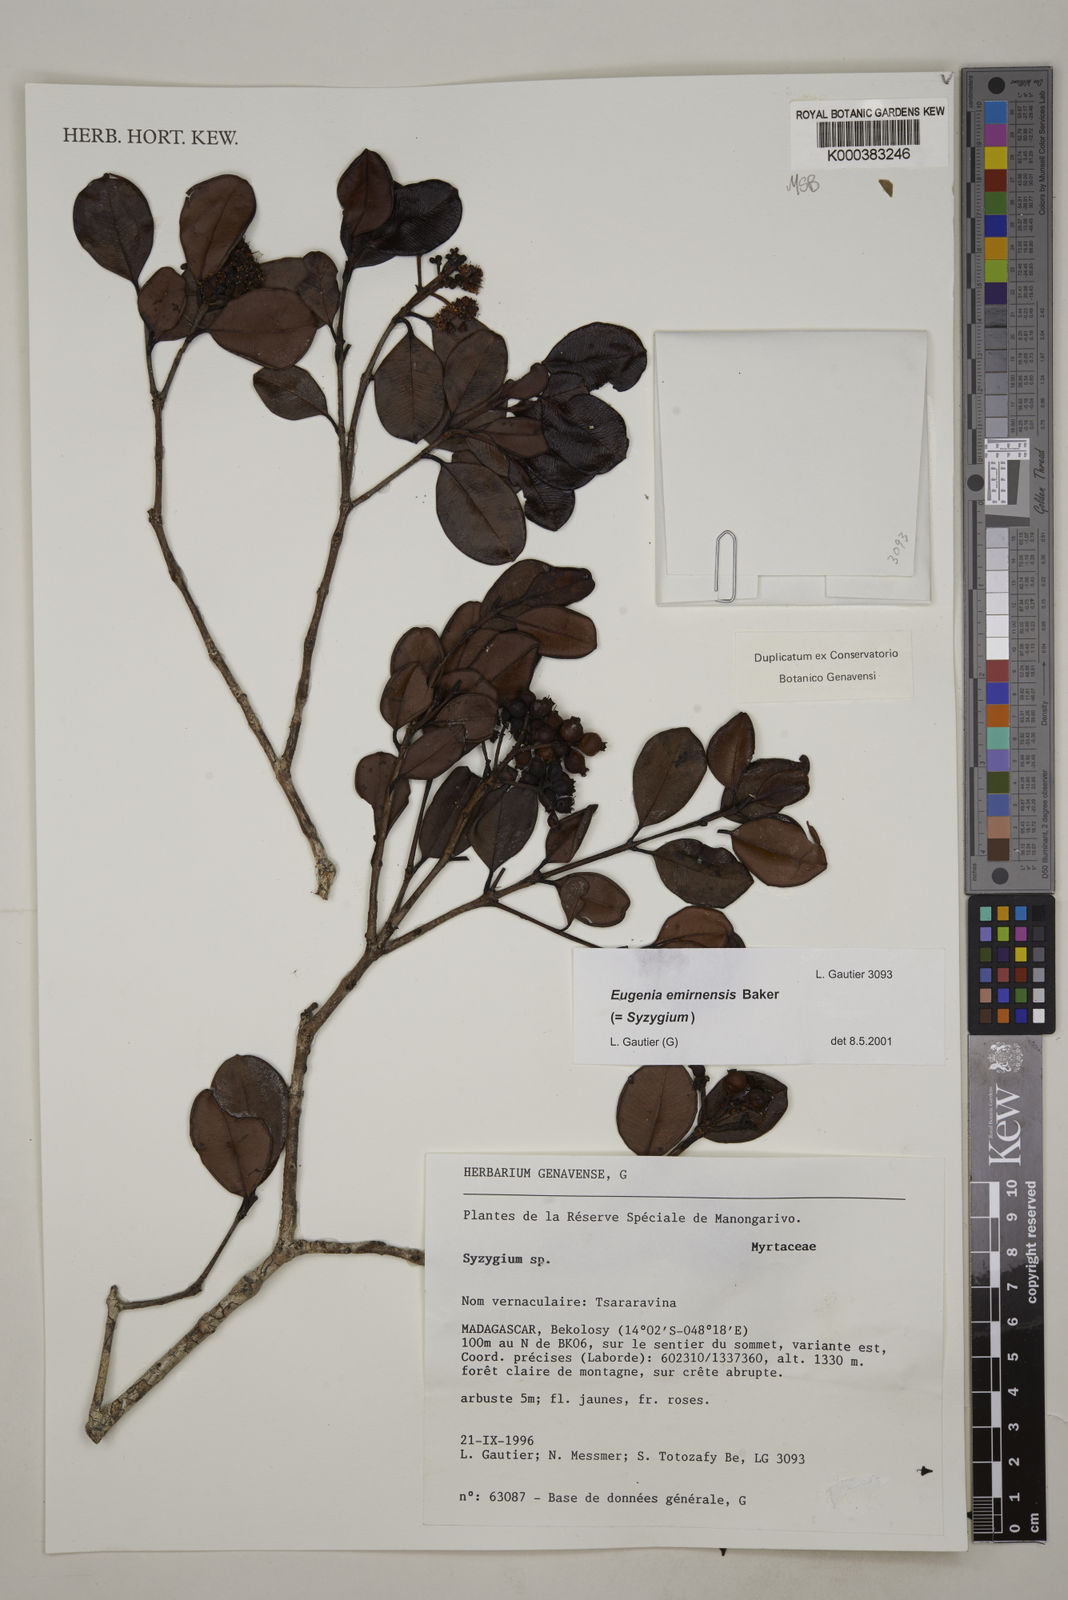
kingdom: Plantae
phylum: Tracheophyta
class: Magnoliopsida
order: Myrtales
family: Myrtaceae
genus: Syzygium
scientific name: Syzygium emirnense
